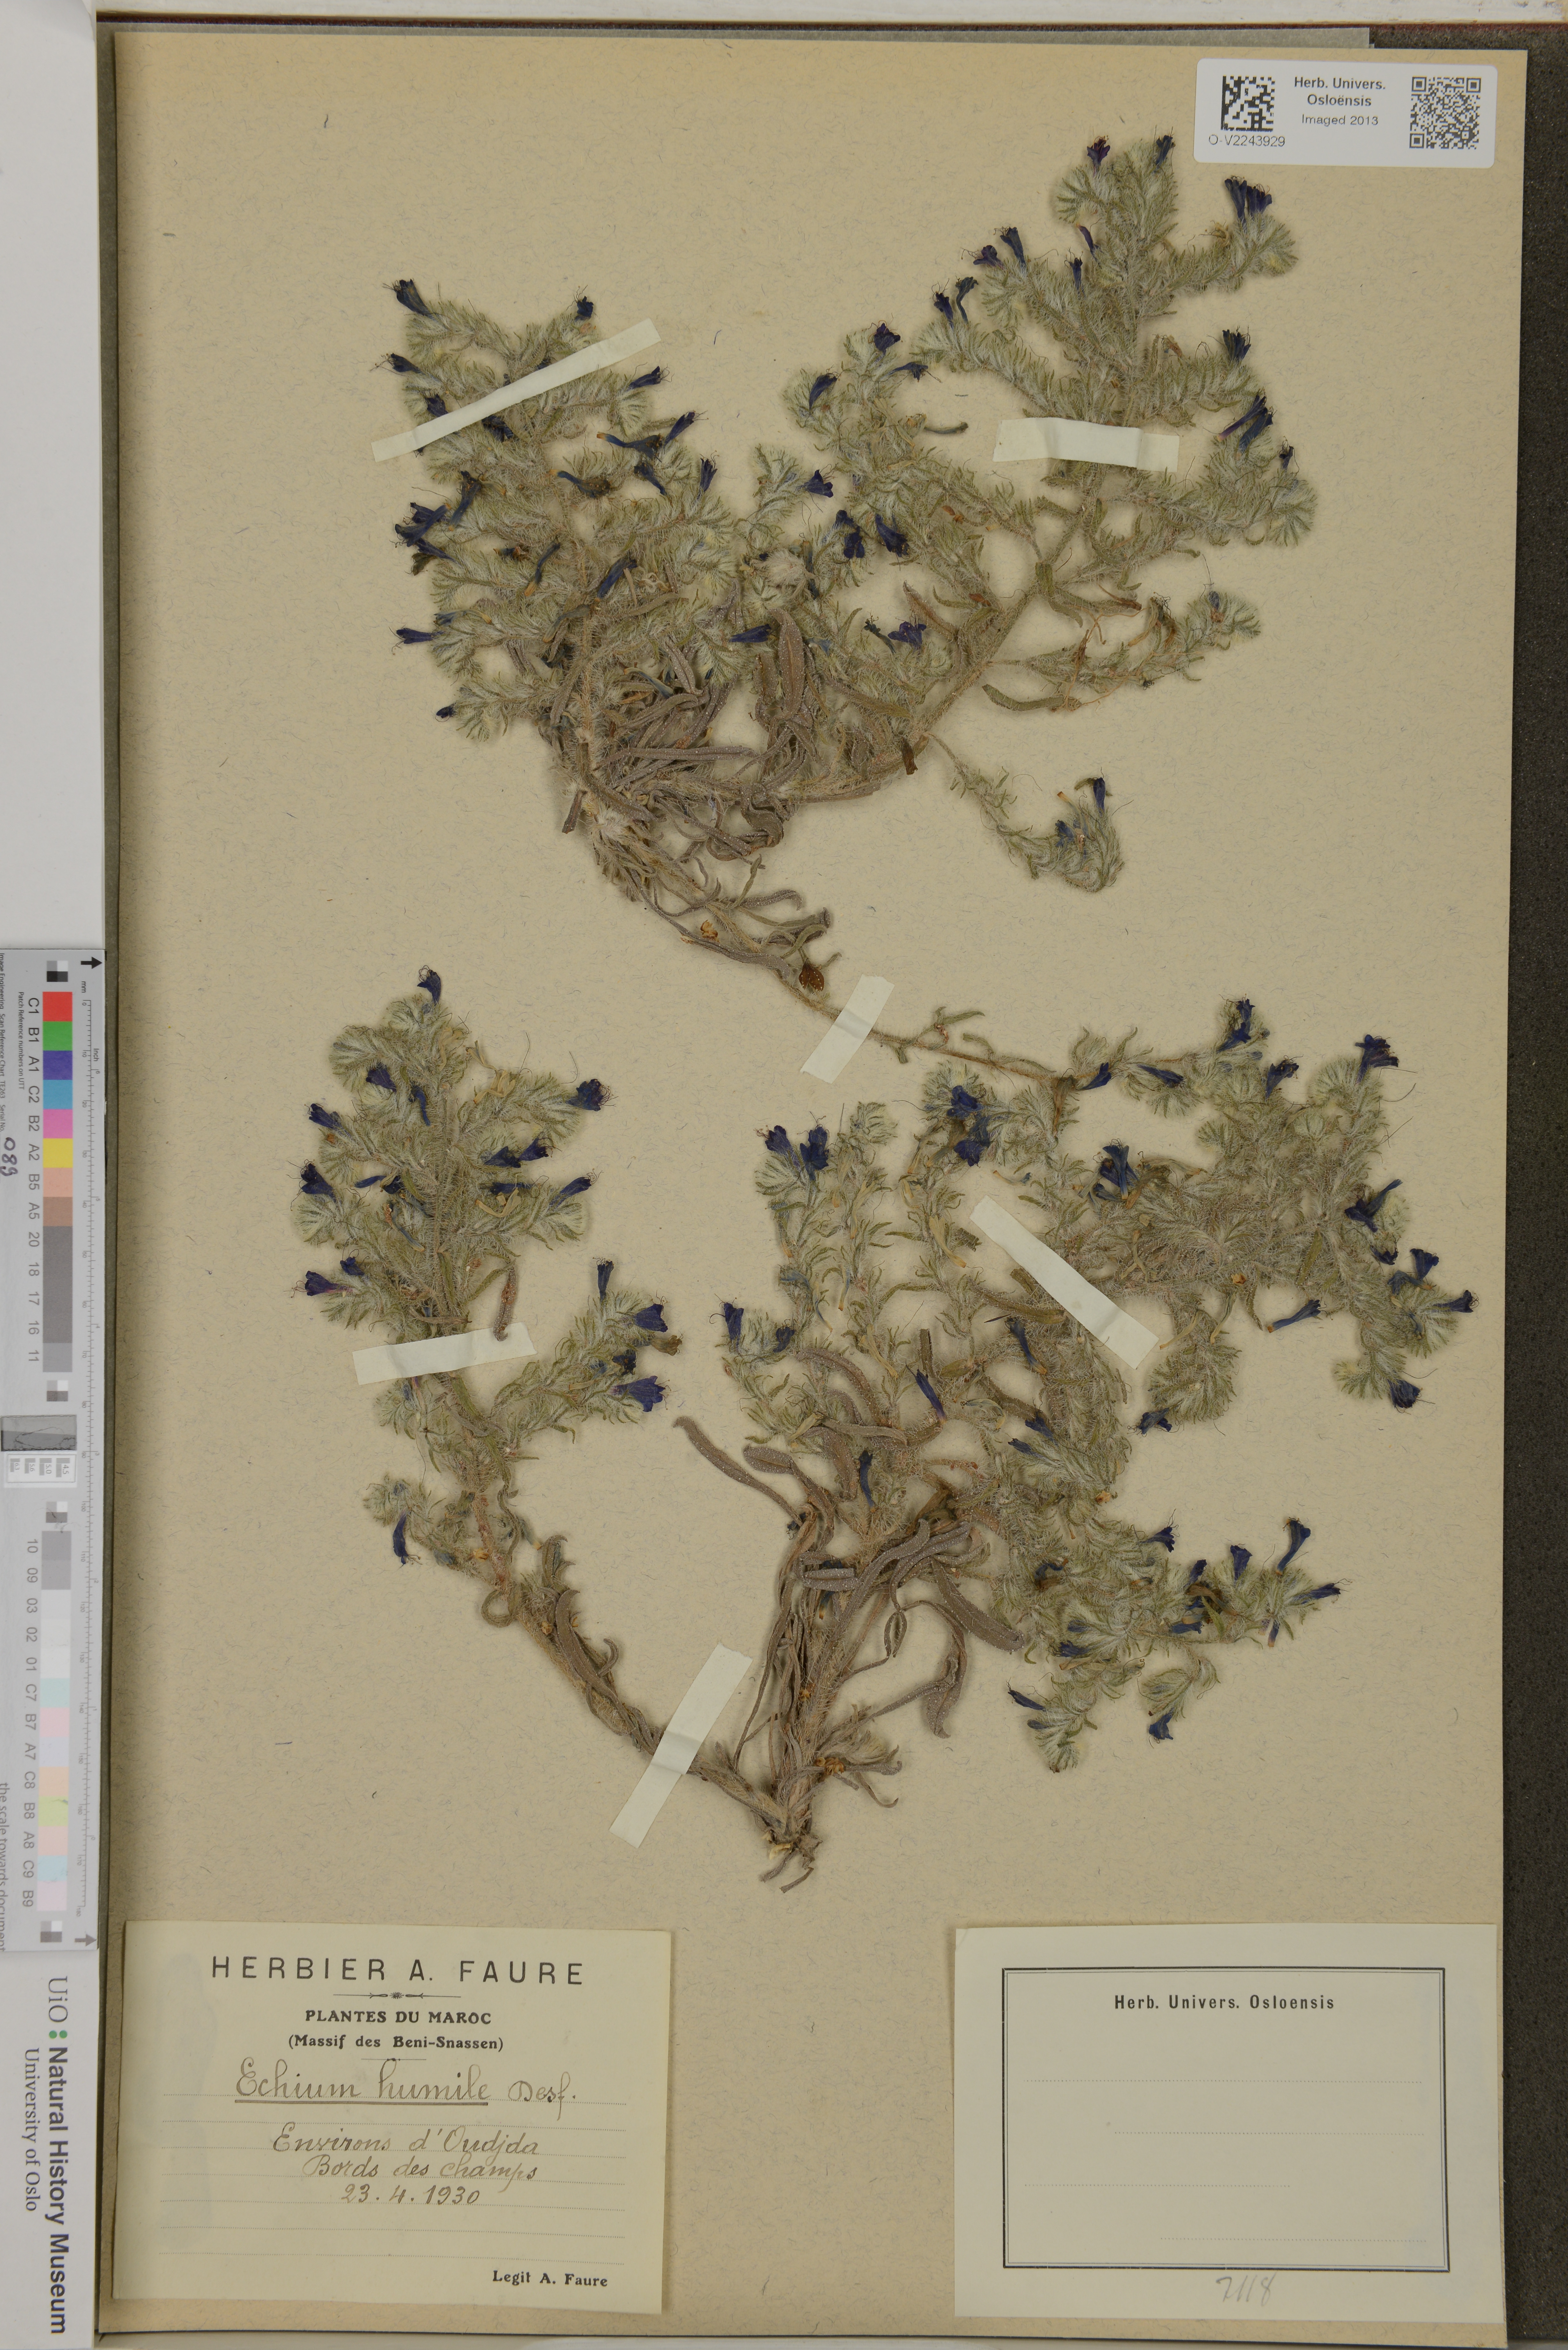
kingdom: Plantae
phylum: Tracheophyta
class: Magnoliopsida
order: Boraginales
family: Boraginaceae
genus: Echium
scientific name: Echium humile
